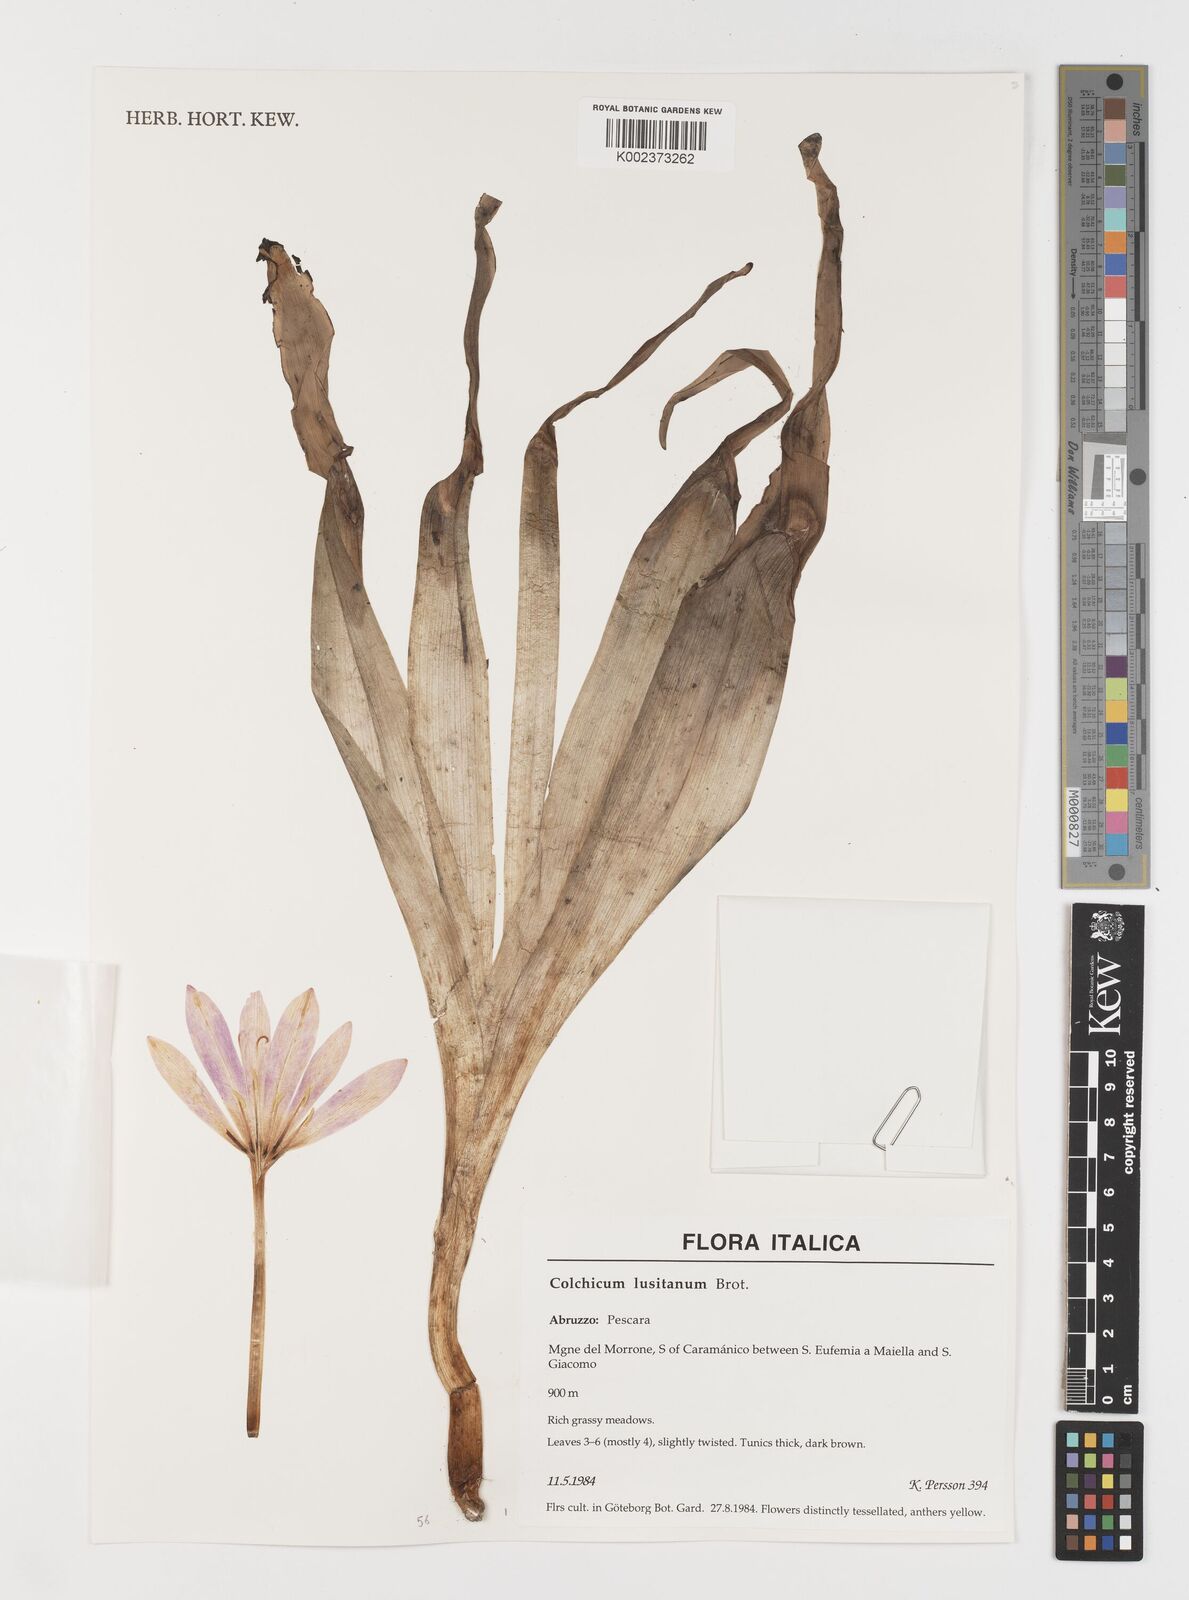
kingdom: Plantae
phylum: Tracheophyta
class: Liliopsida
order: Liliales
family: Colchicaceae
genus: Colchicum
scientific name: Colchicum
